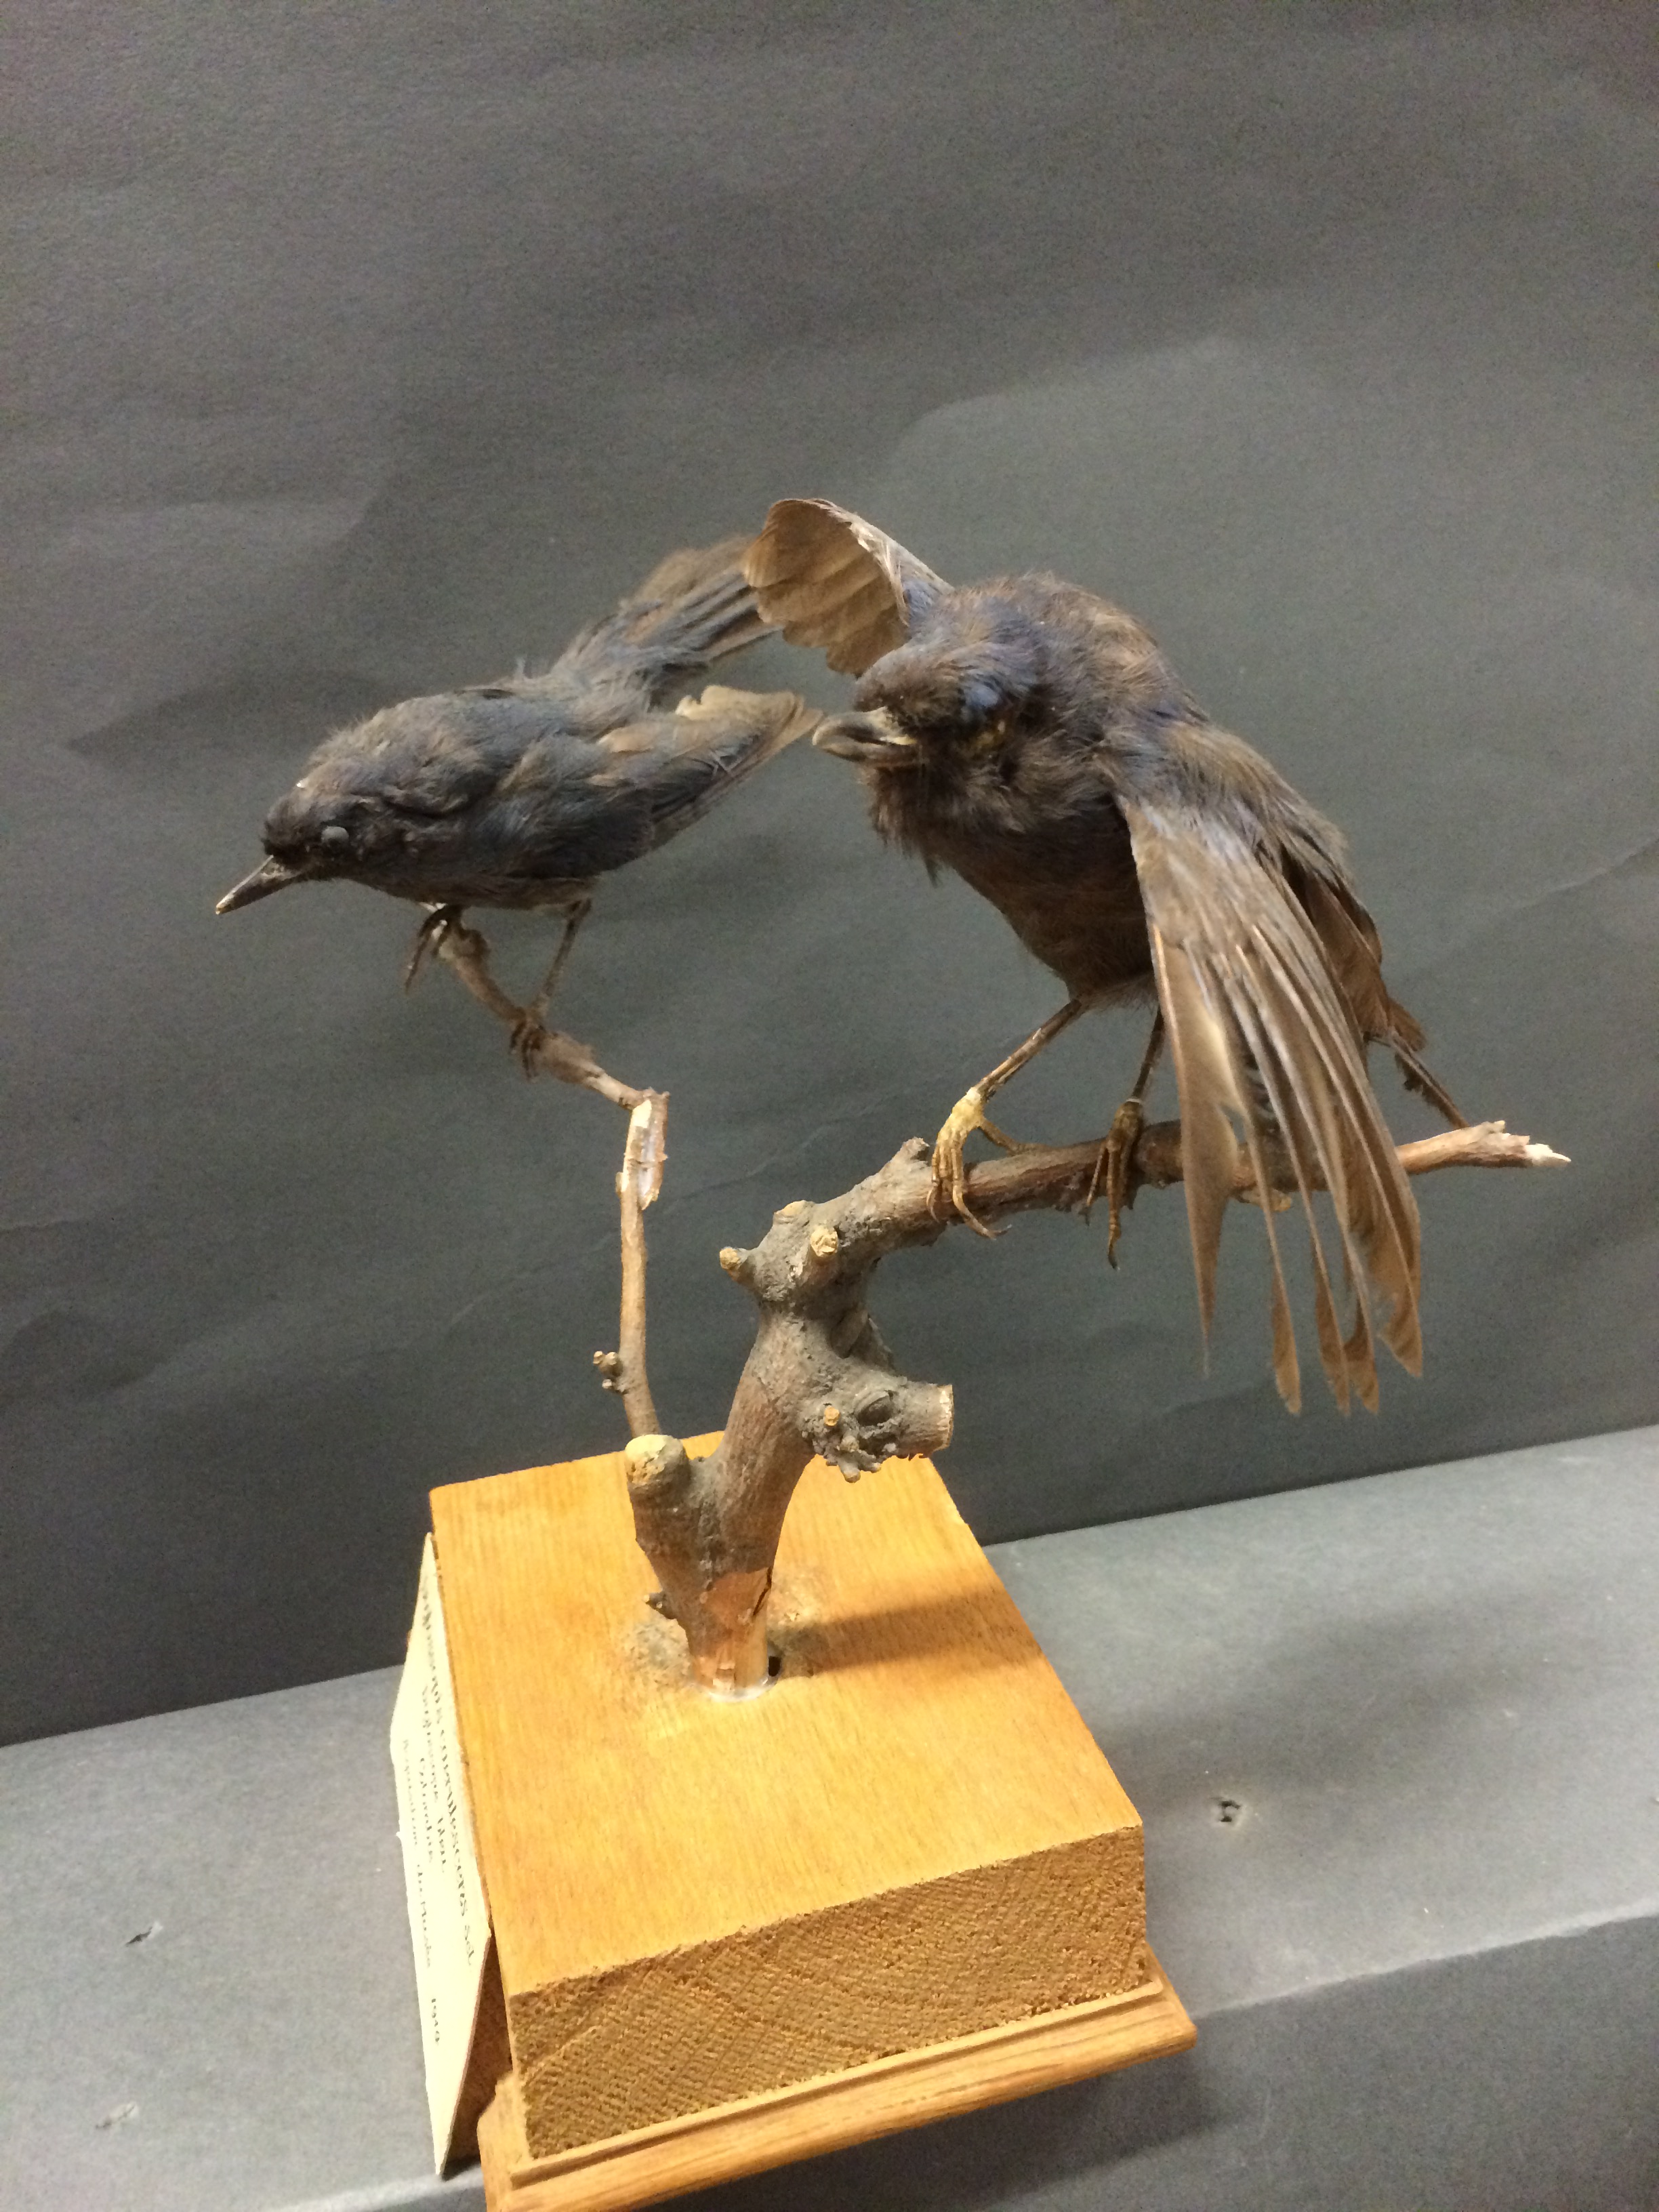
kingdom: Animalia
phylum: Chordata
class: Aves
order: Passeriformes
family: Thraupidae
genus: Diglossa
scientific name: Diglossa caerulescens
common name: Bluish flowerpiercer
